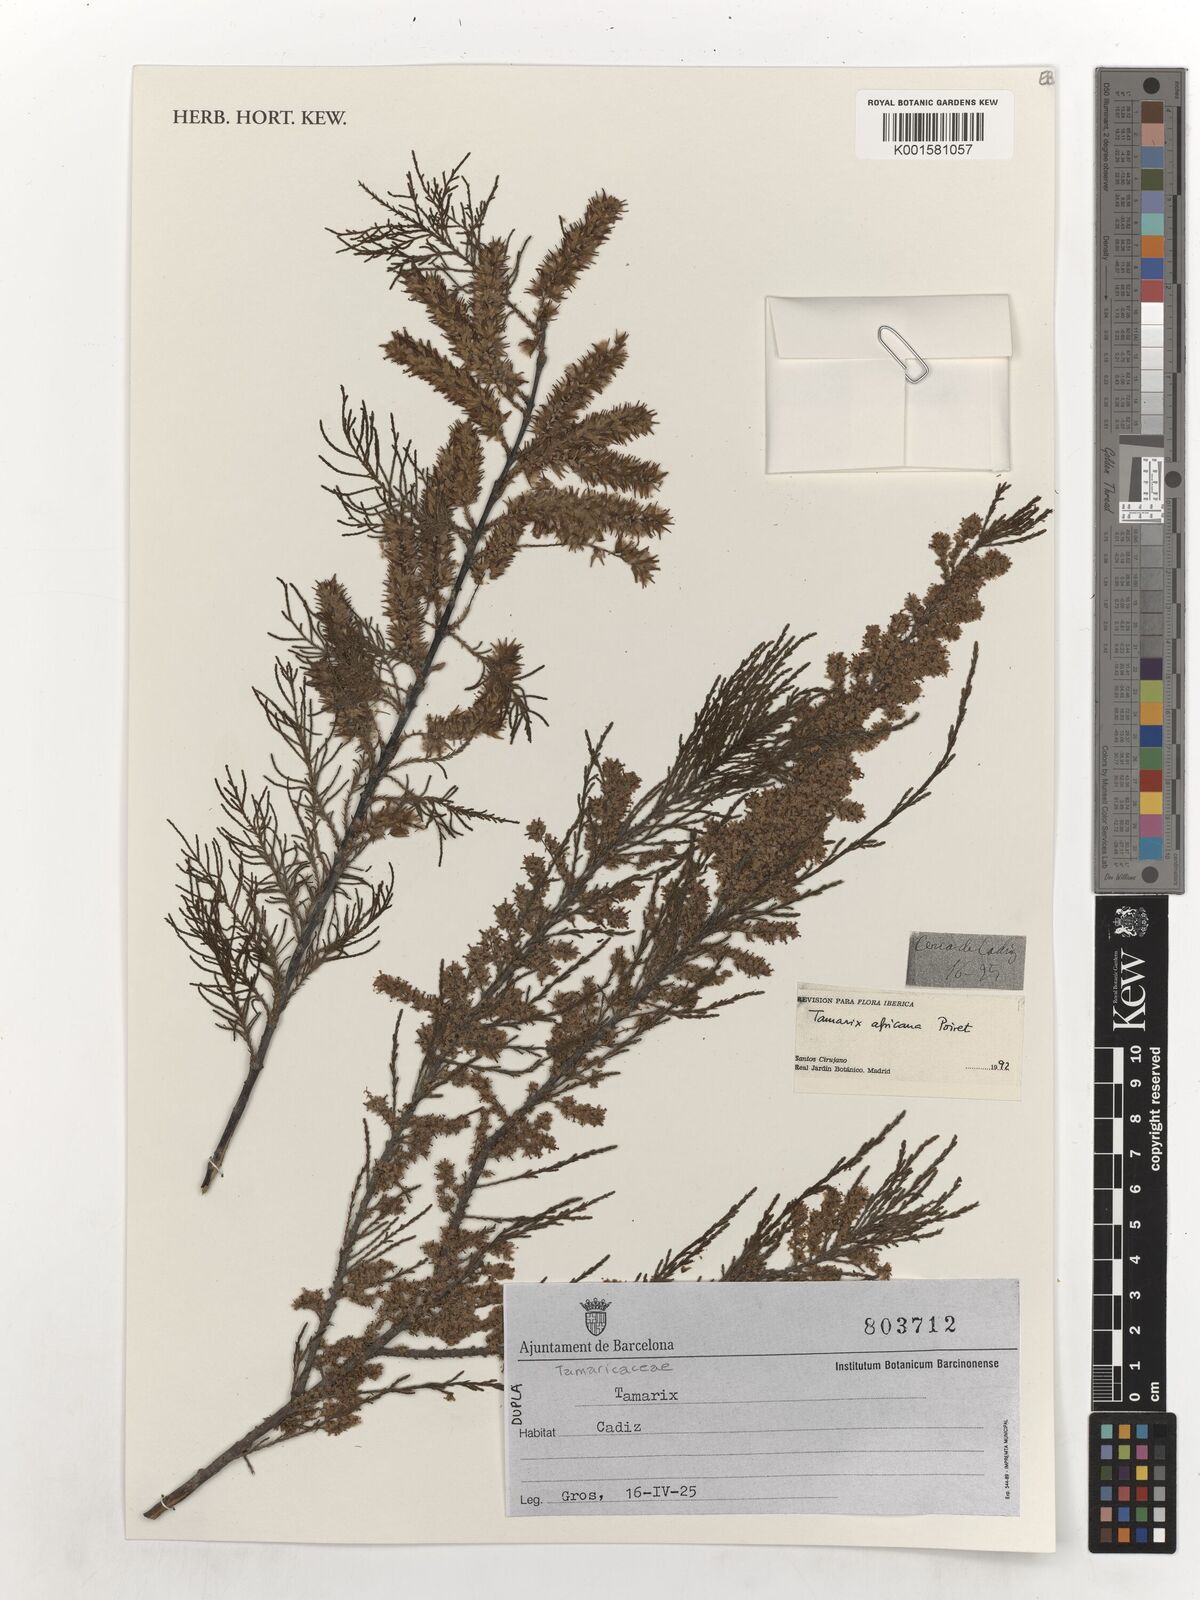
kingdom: Plantae
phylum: Tracheophyta
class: Magnoliopsida
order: Caryophyllales
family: Tamaricaceae
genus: Tamarix
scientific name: Tamarix africana
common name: African tamarisk
